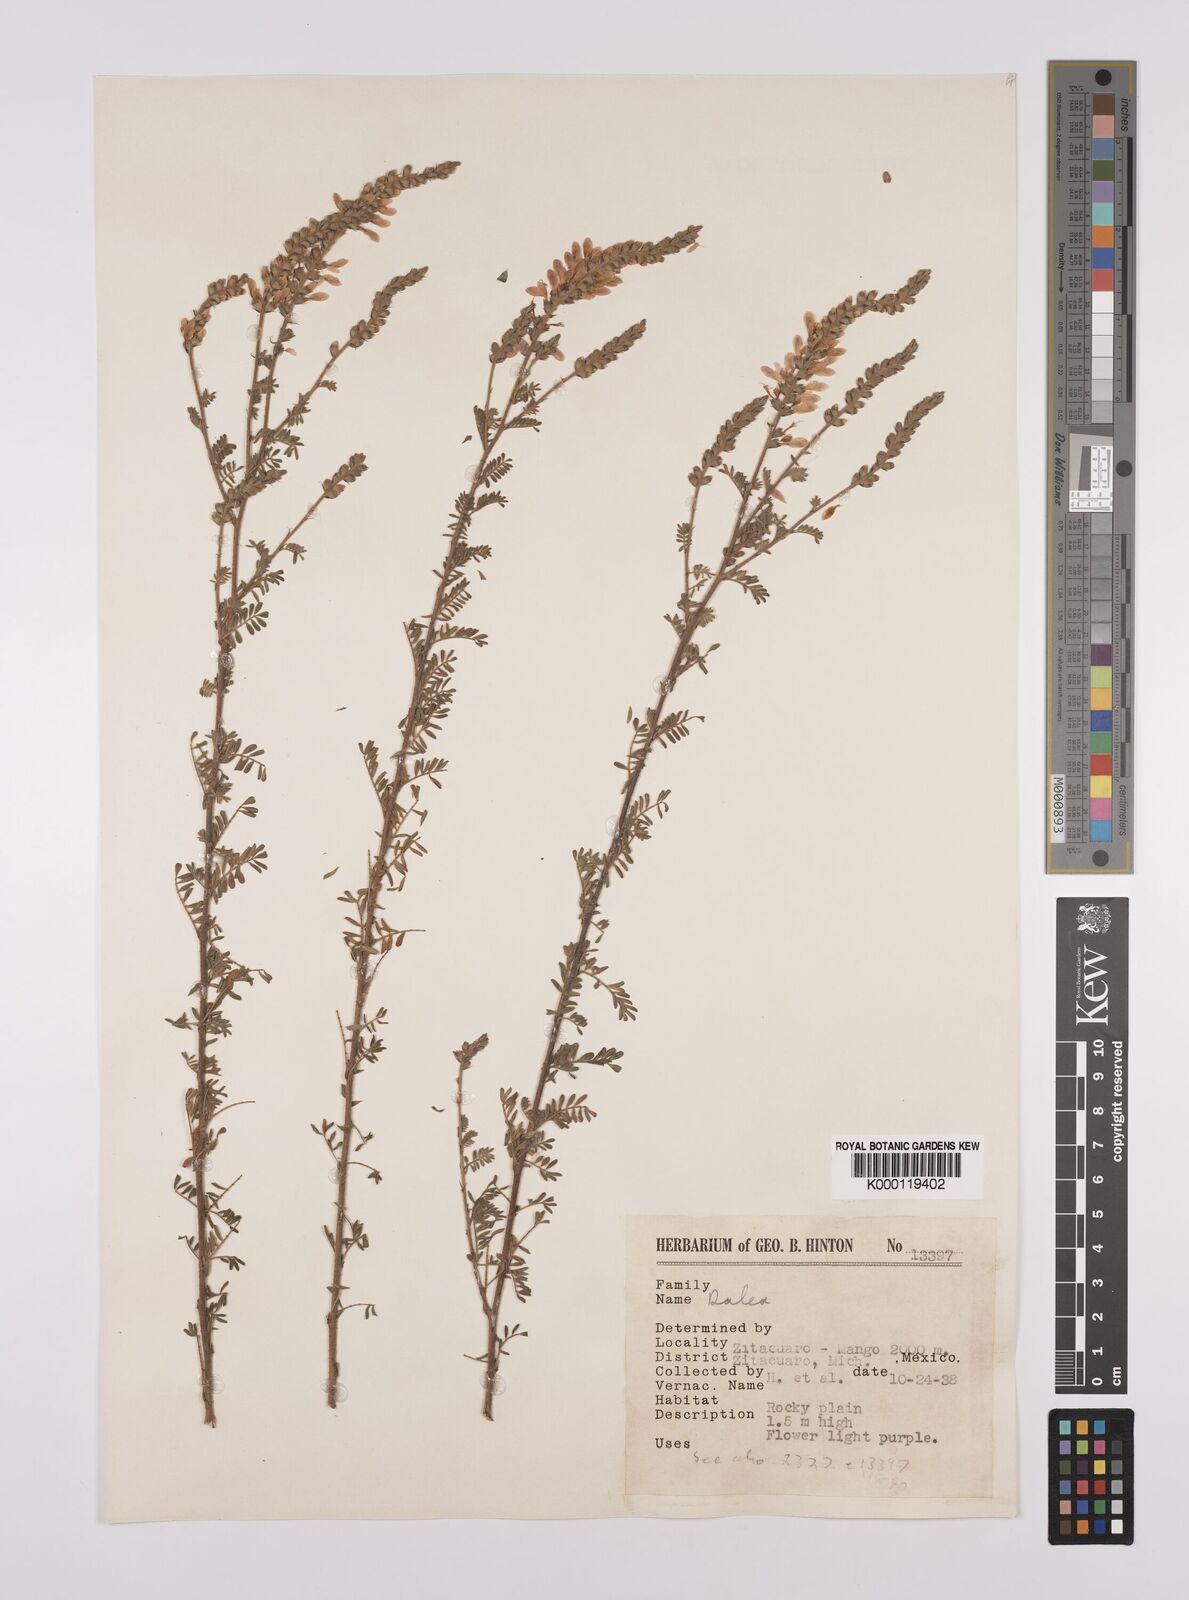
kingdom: Plantae
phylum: Tracheophyta
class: Magnoliopsida
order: Fabales
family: Fabaceae
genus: Dalea
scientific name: Dalea
